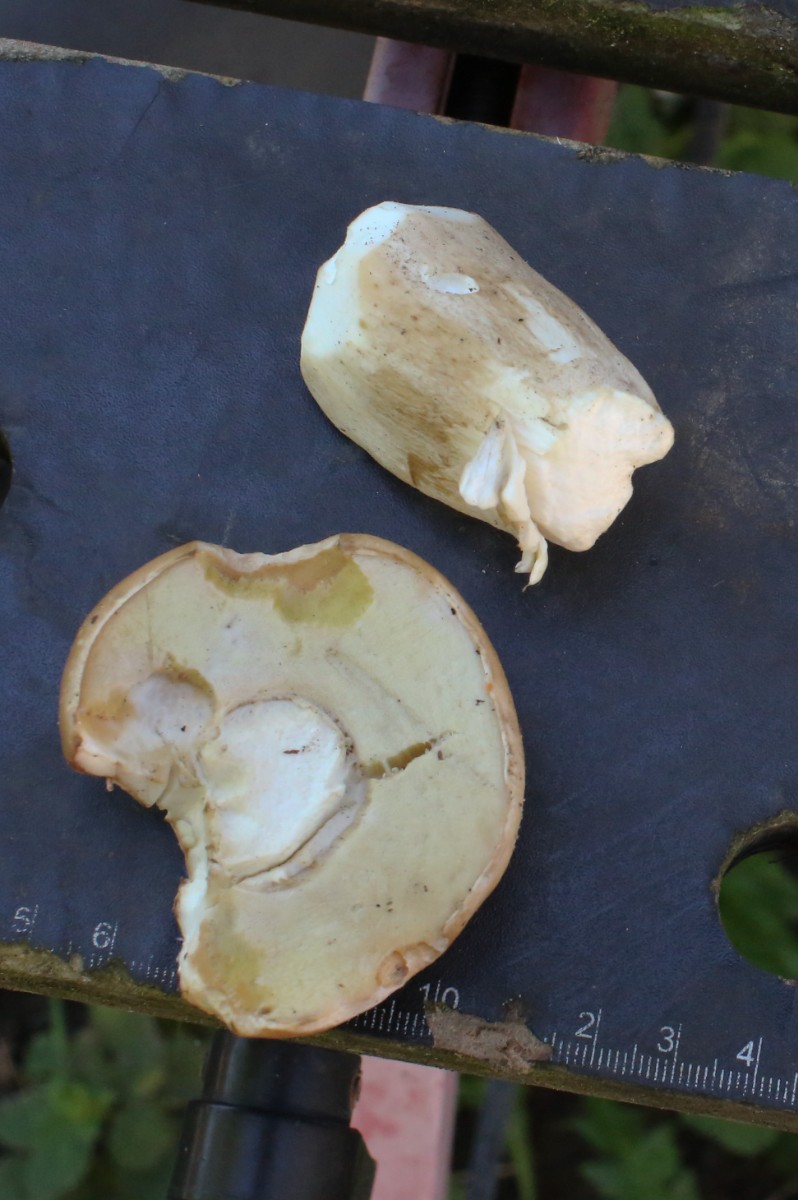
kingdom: Fungi
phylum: Basidiomycota
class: Agaricomycetes
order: Boletales
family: Boletaceae
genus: Boletus
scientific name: Boletus edulis
